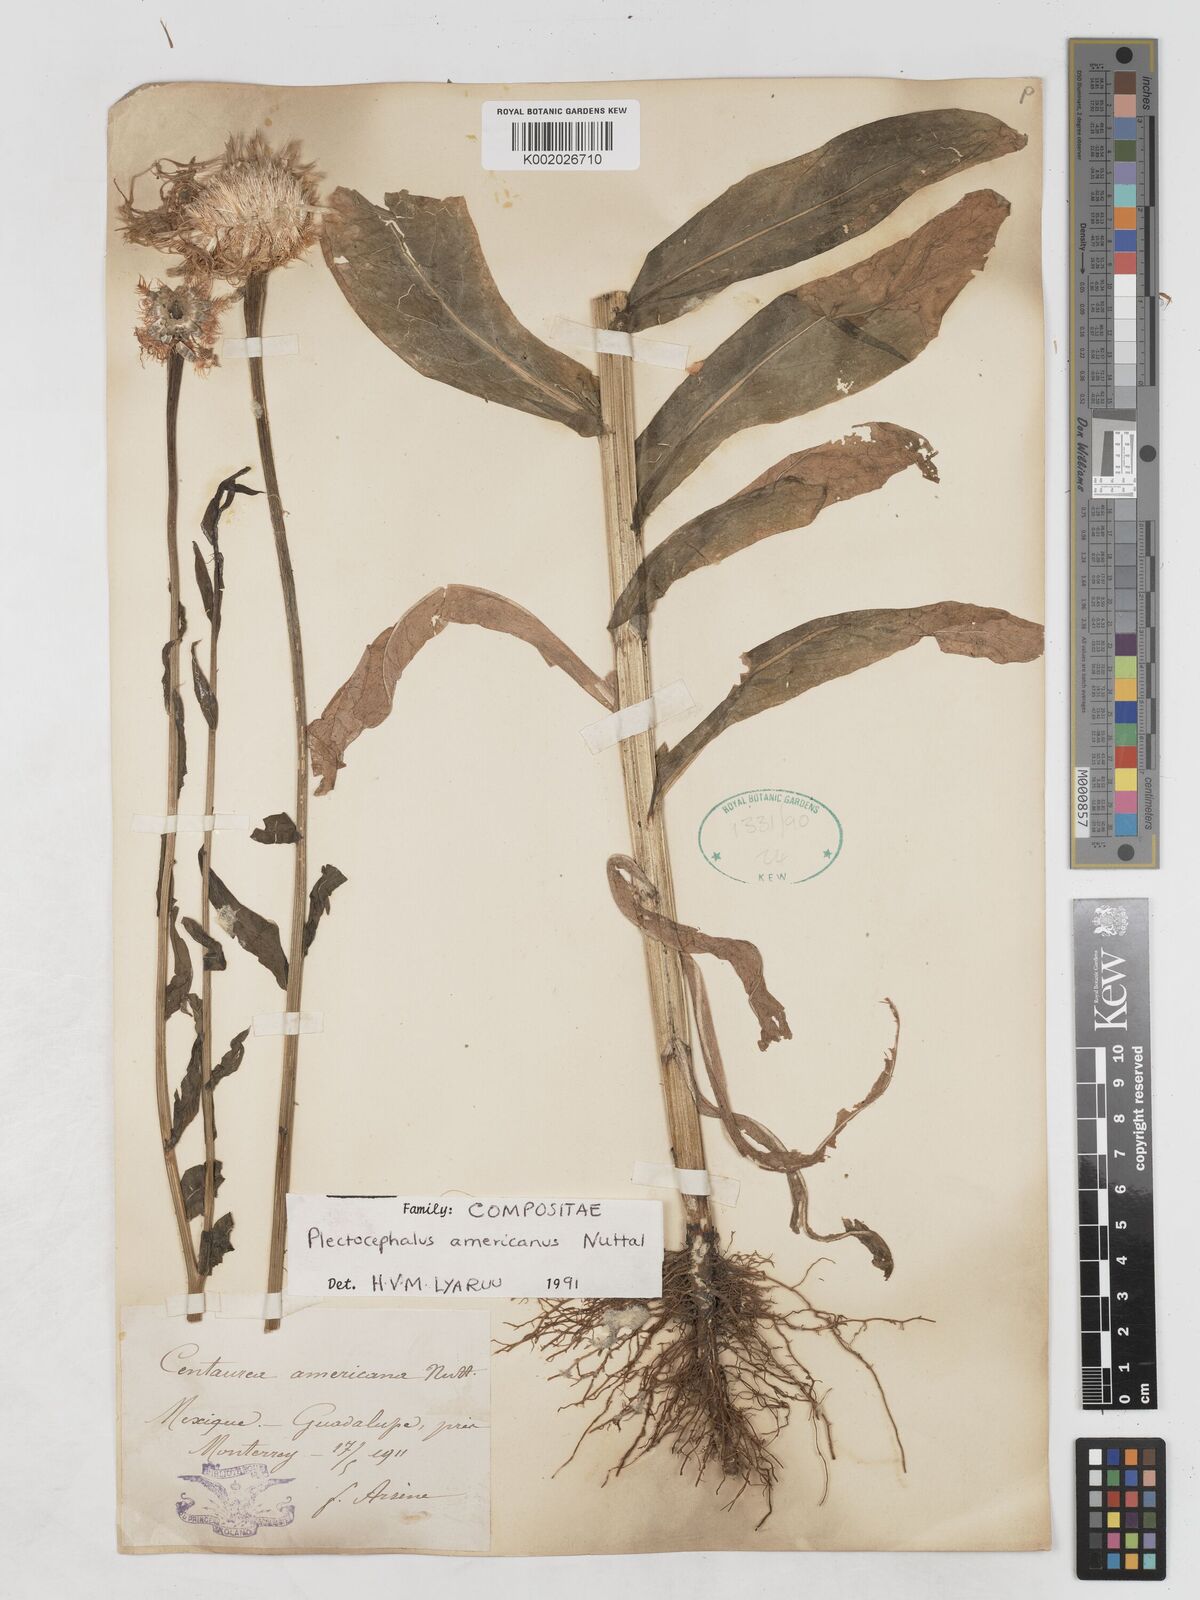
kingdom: Plantae
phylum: Tracheophyta
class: Magnoliopsida
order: Asterales
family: Asteraceae
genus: Plectocephalus
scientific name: Plectocephalus americanus
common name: American basket-flower
